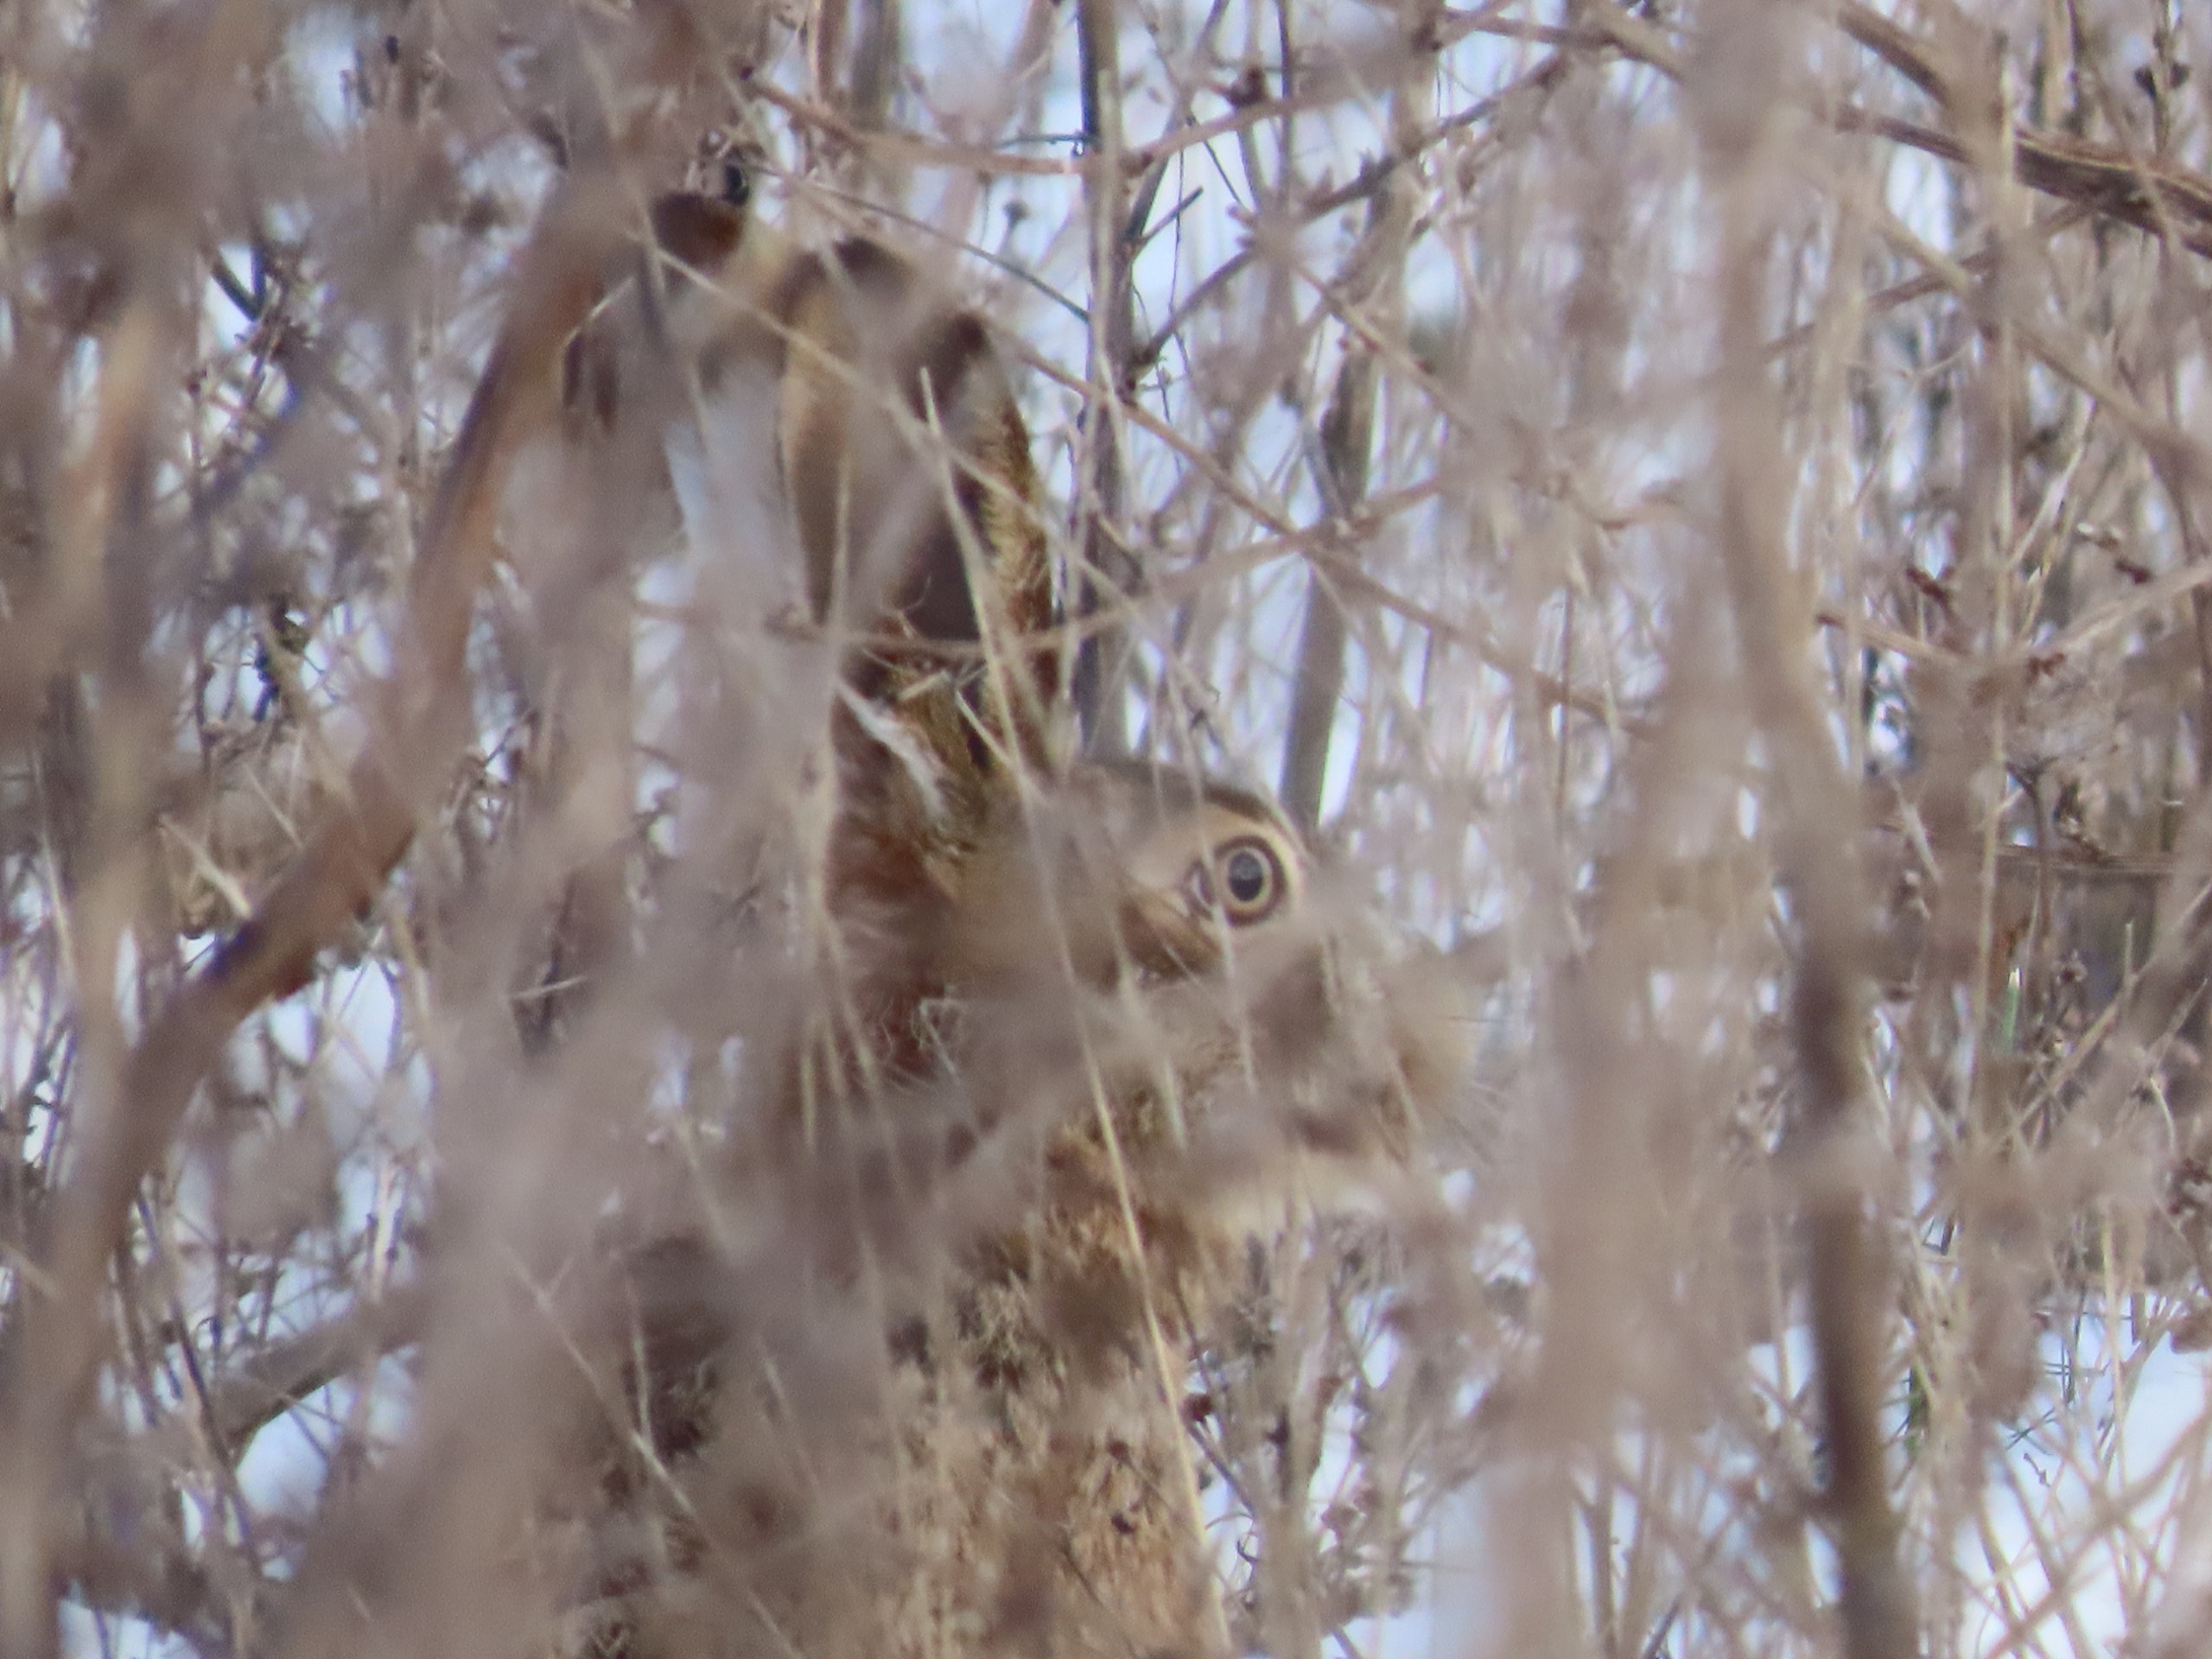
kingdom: Animalia
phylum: Chordata
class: Mammalia
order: Lagomorpha
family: Leporidae
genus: Lepus
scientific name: Lepus europaeus
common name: Hare
